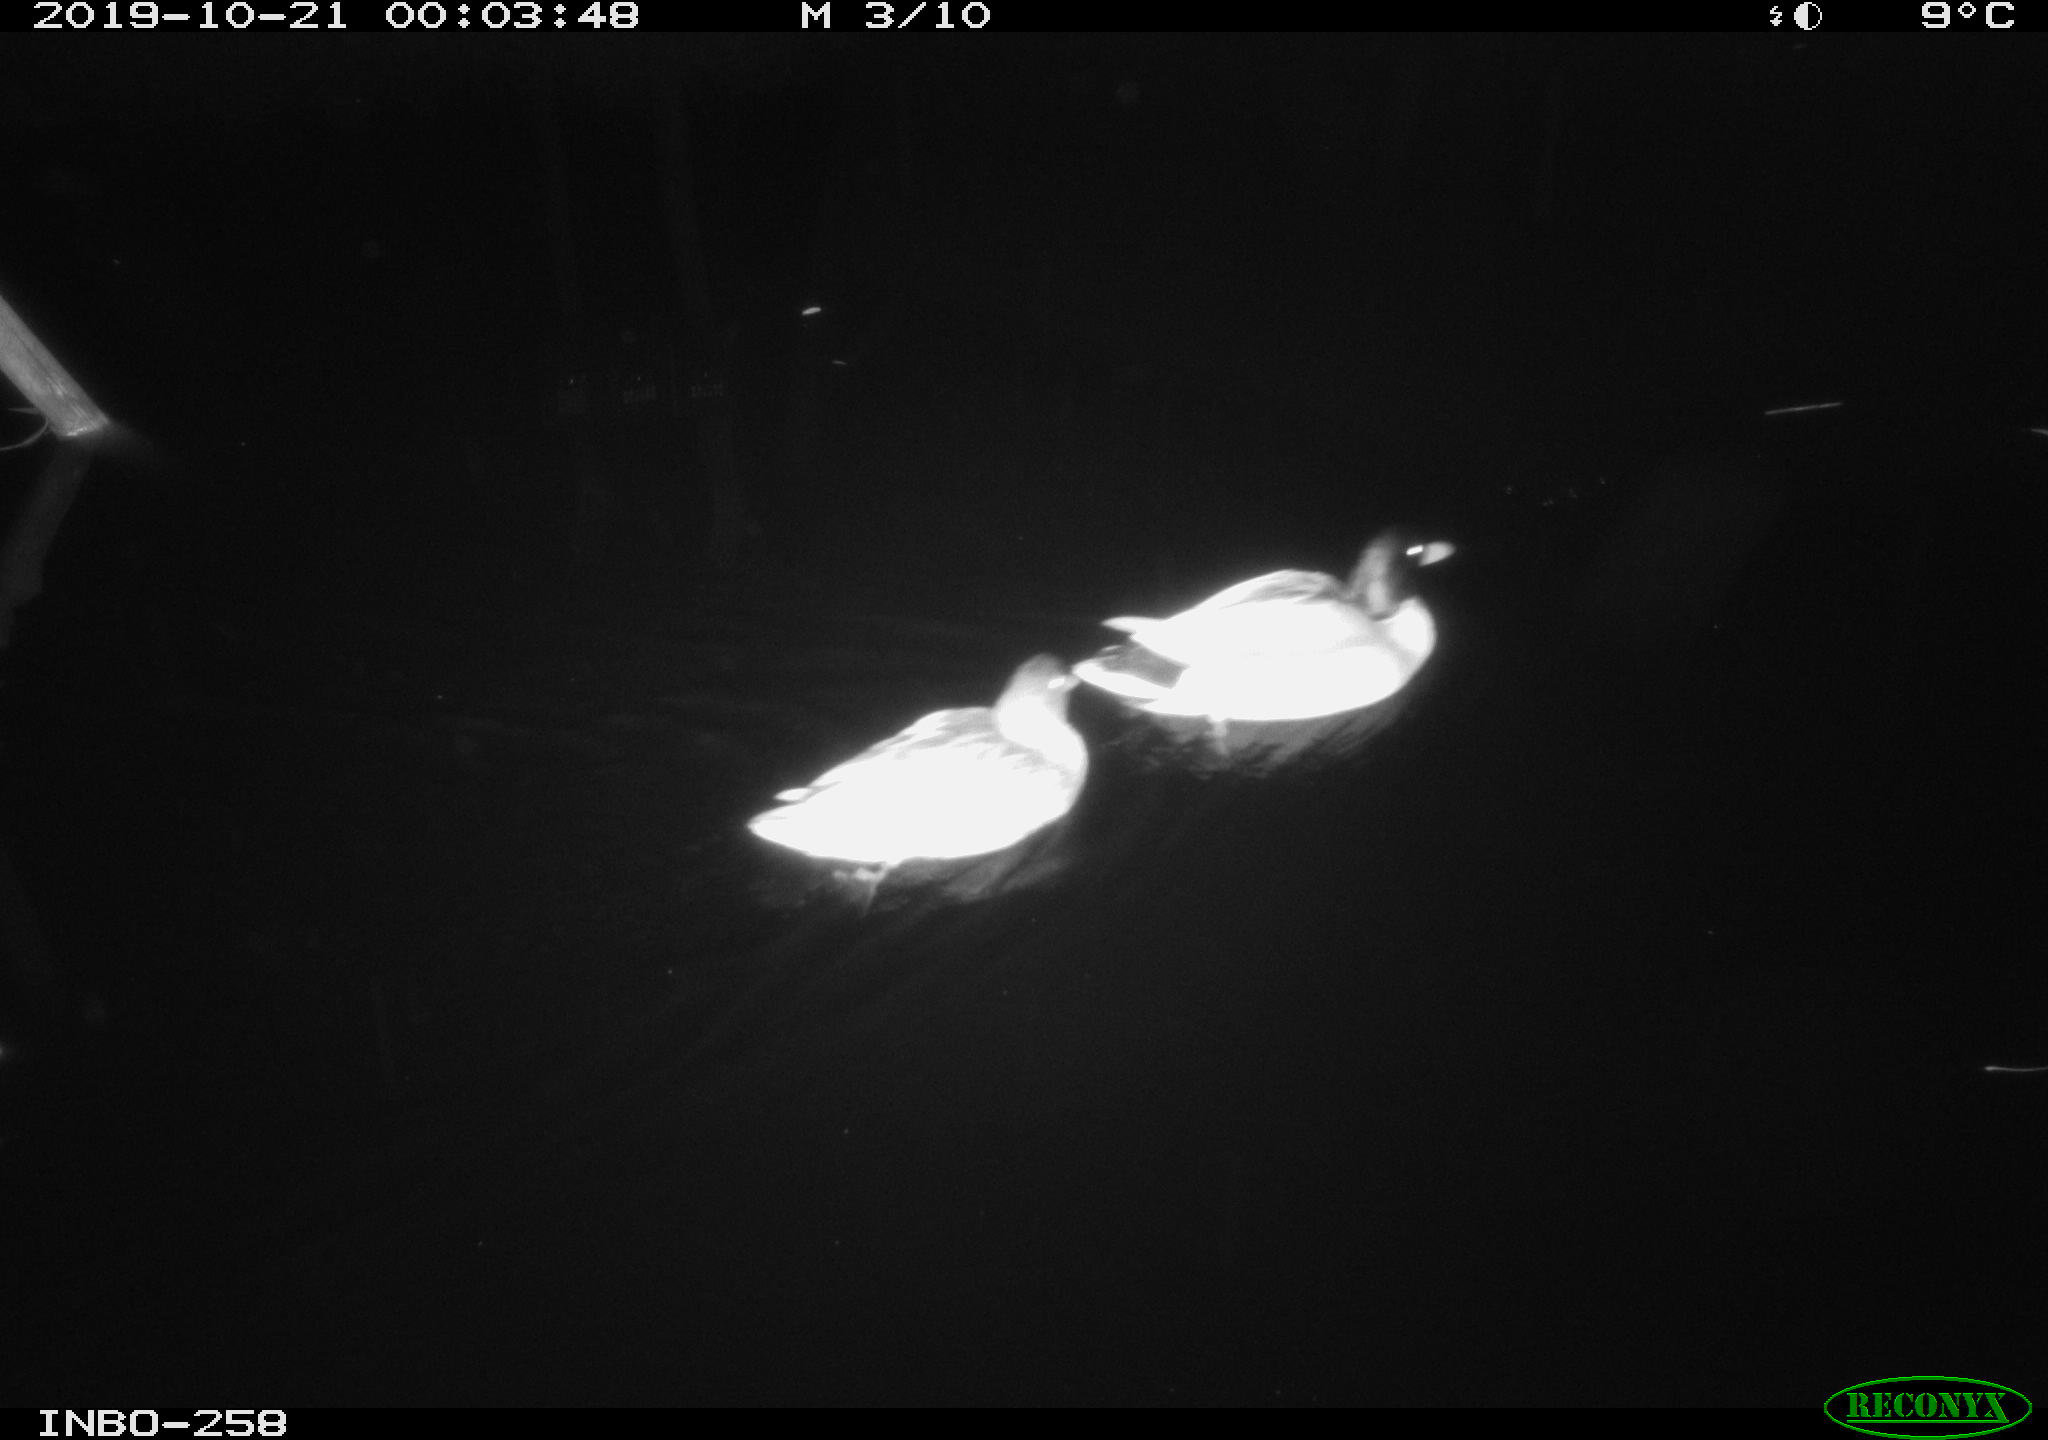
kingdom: Animalia
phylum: Chordata
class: Aves
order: Anseriformes
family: Anatidae
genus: Anas
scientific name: Anas platyrhynchos
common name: Mallard
